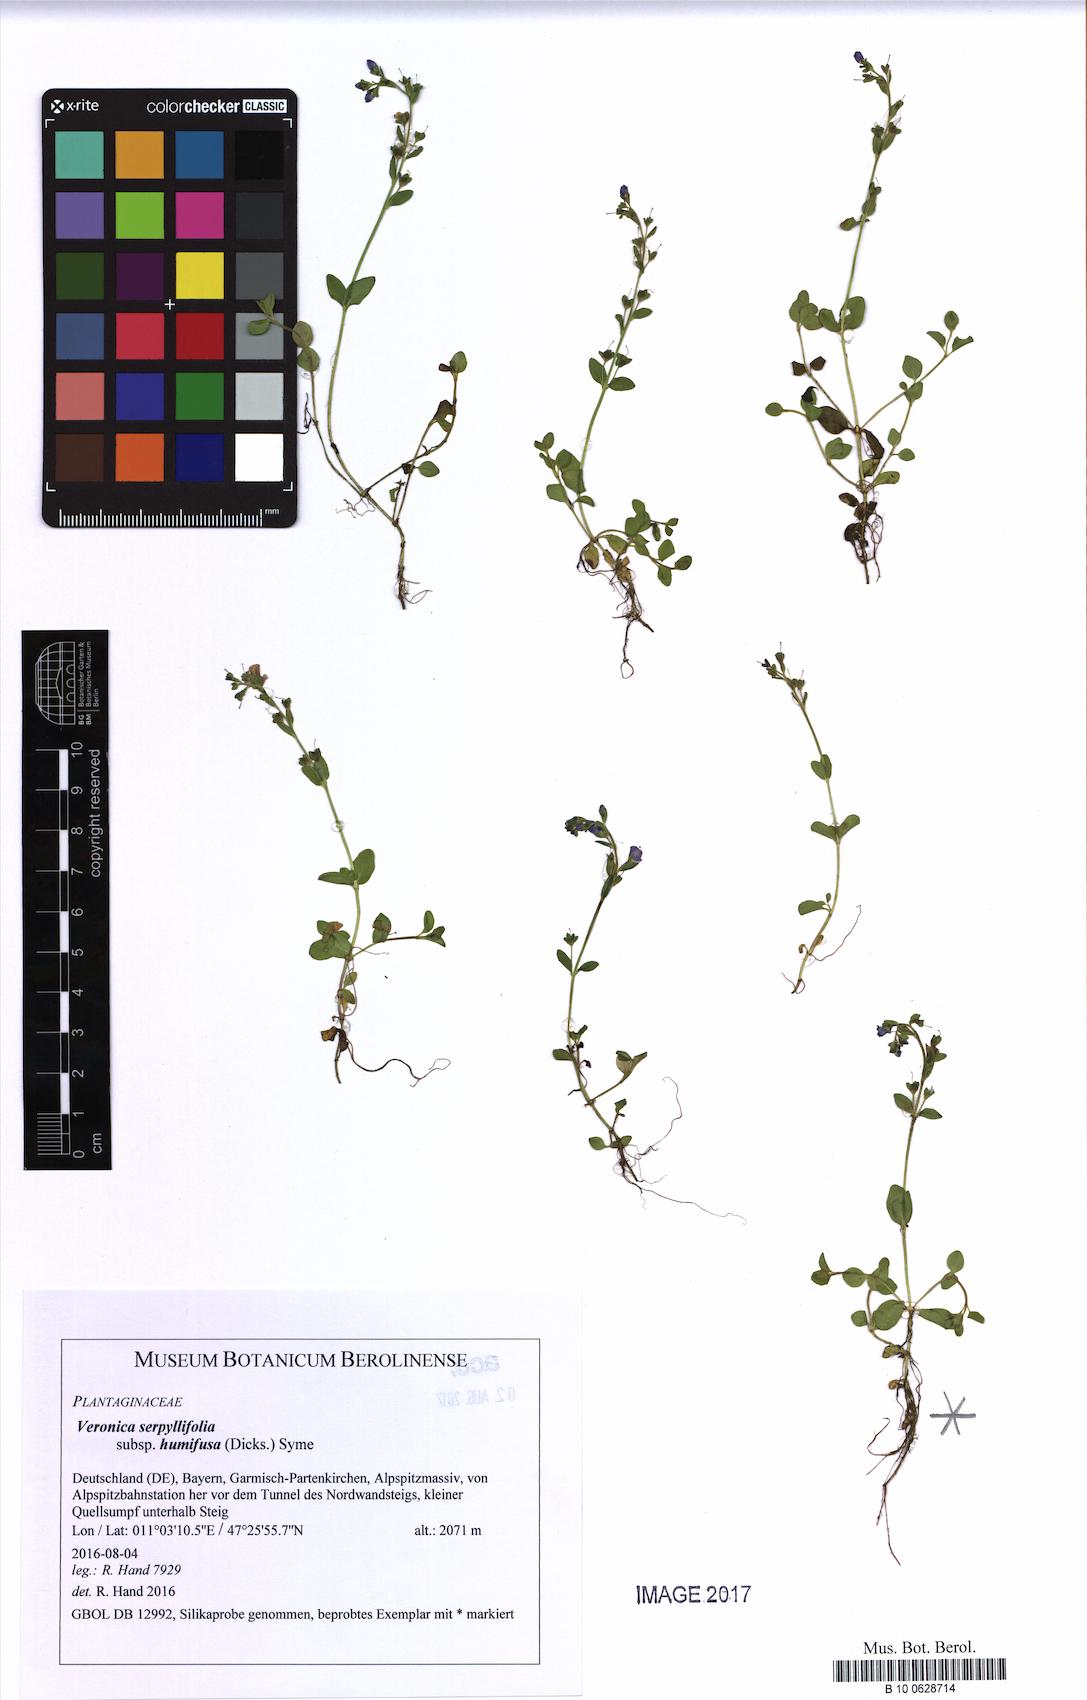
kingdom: Plantae
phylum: Tracheophyta
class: Magnoliopsida
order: Lamiales
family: Plantaginaceae
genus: Veronica
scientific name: Veronica serpyllifolia
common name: Thyme-leaved speedwell
